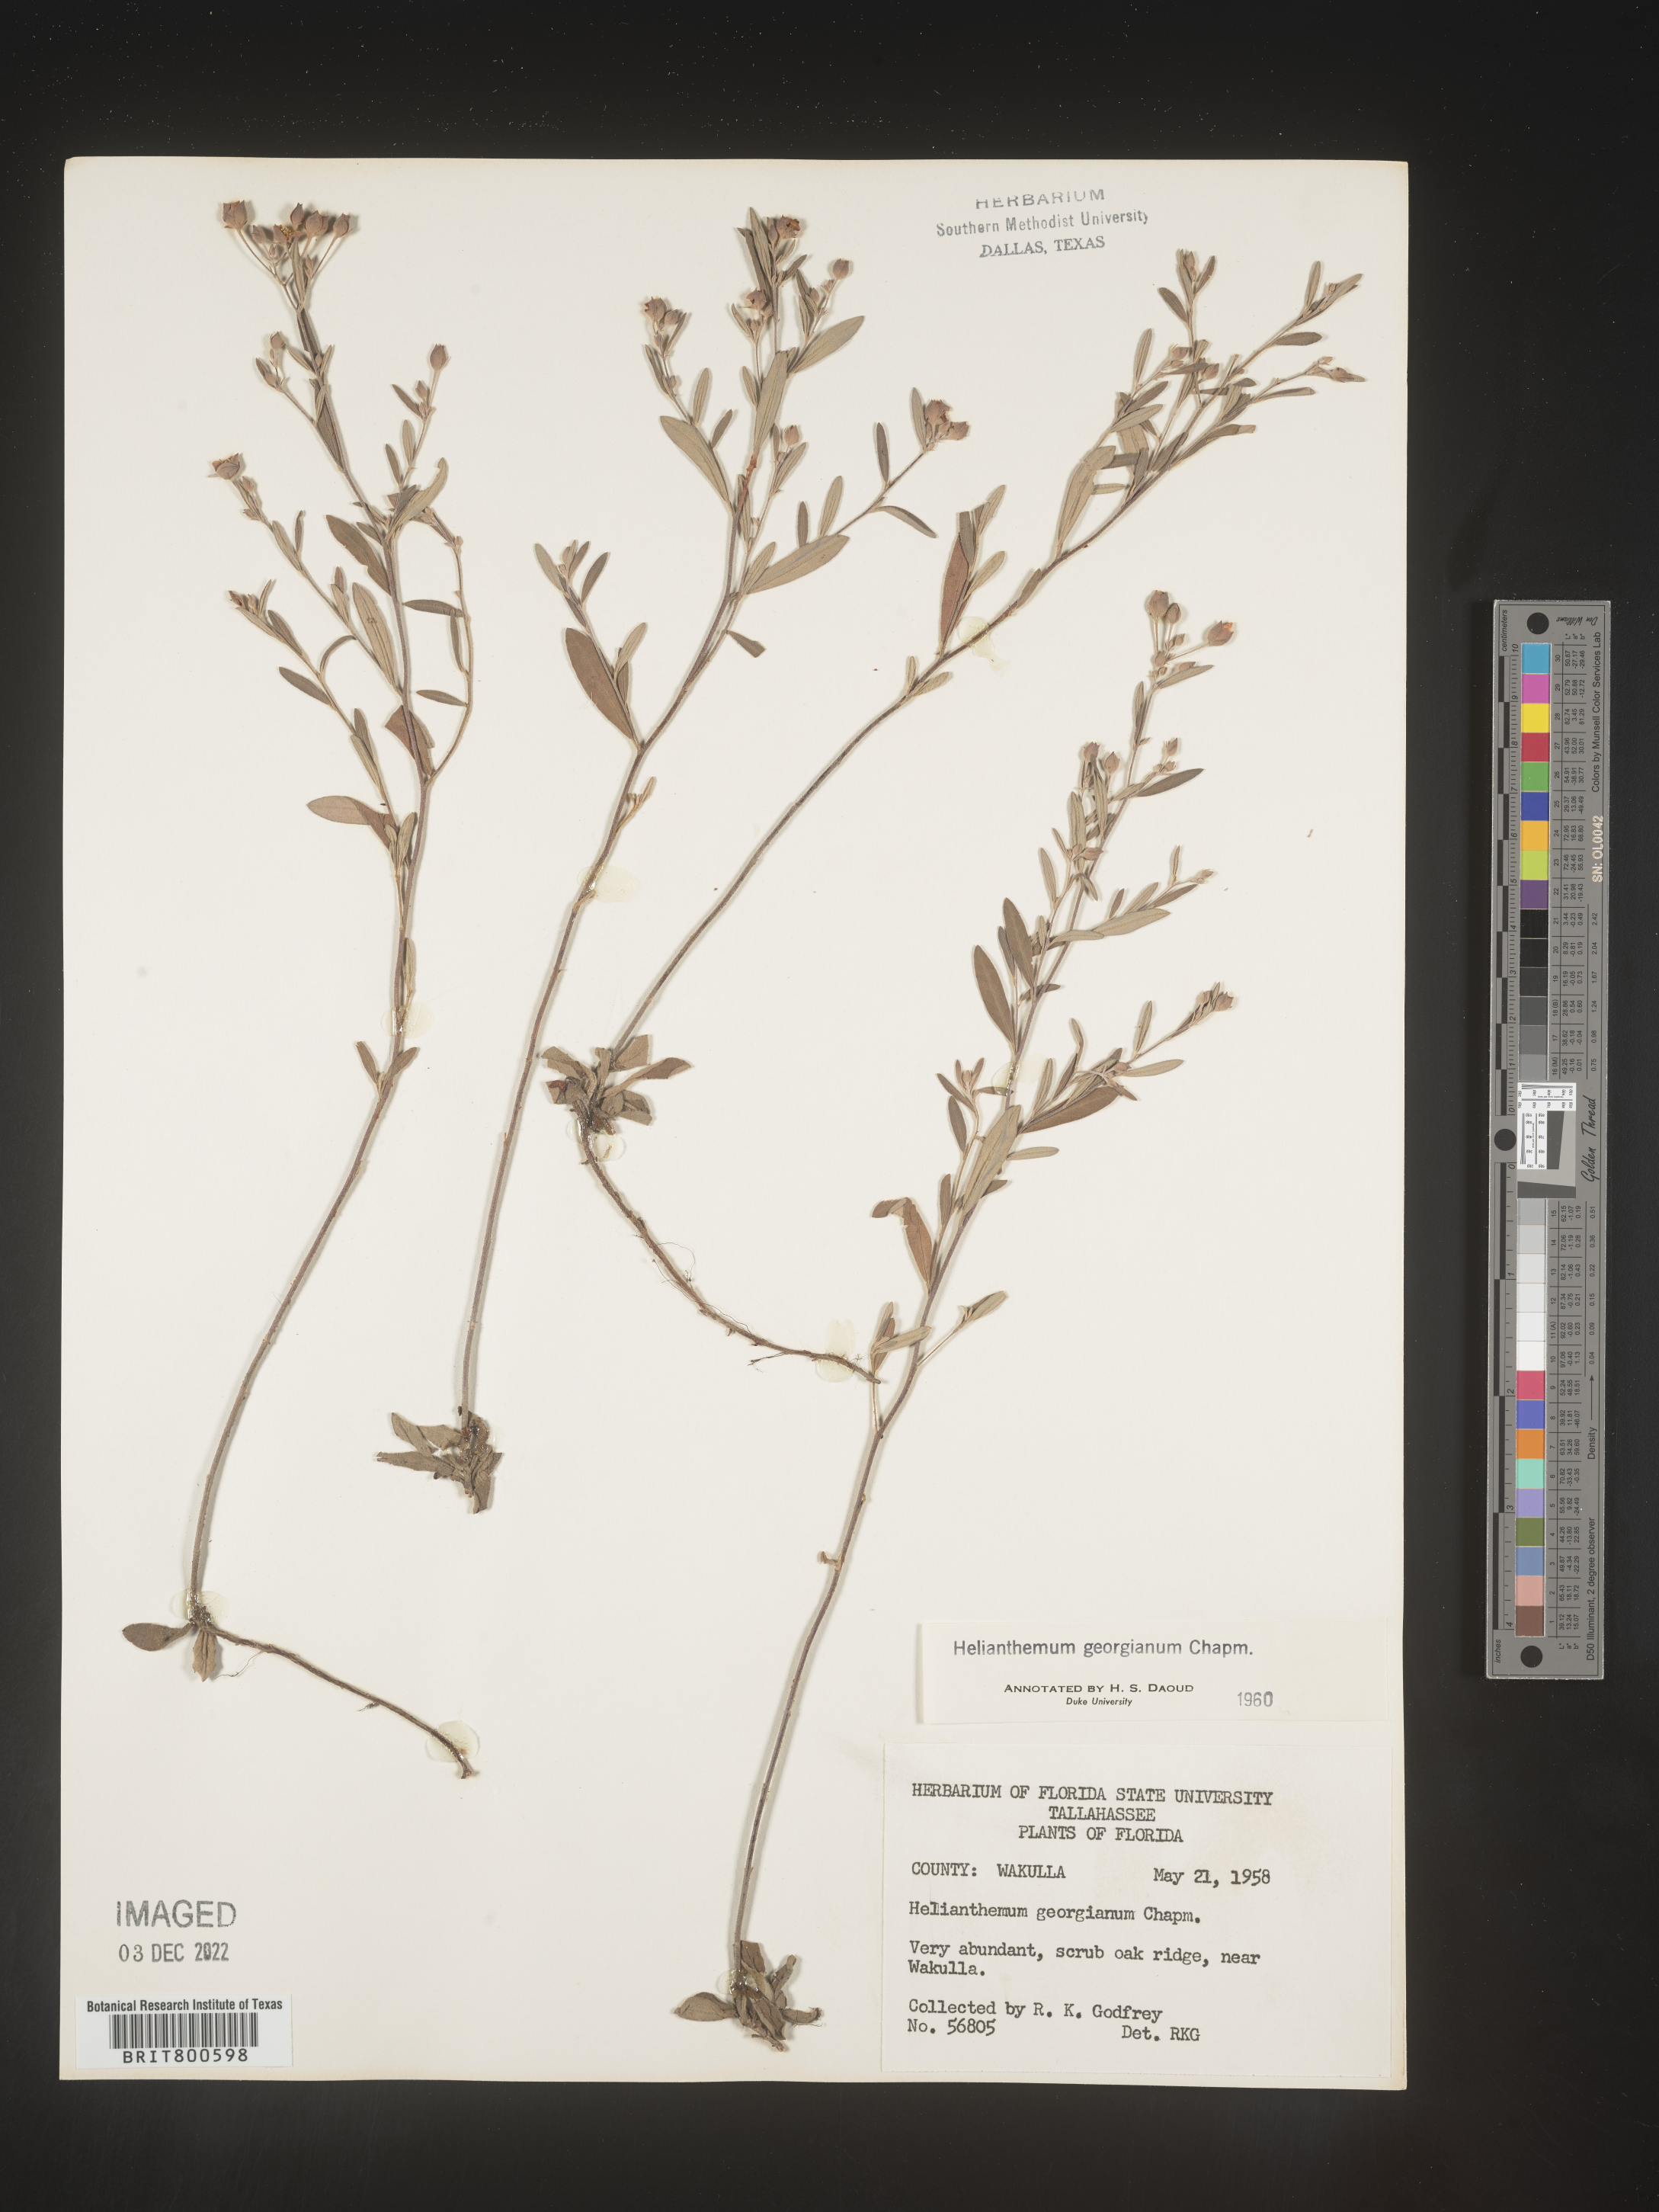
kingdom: Plantae
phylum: Tracheophyta
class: Magnoliopsida
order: Malvales
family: Cistaceae
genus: Crocanthemum
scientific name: Crocanthemum georgianum
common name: Georgia frostweed
